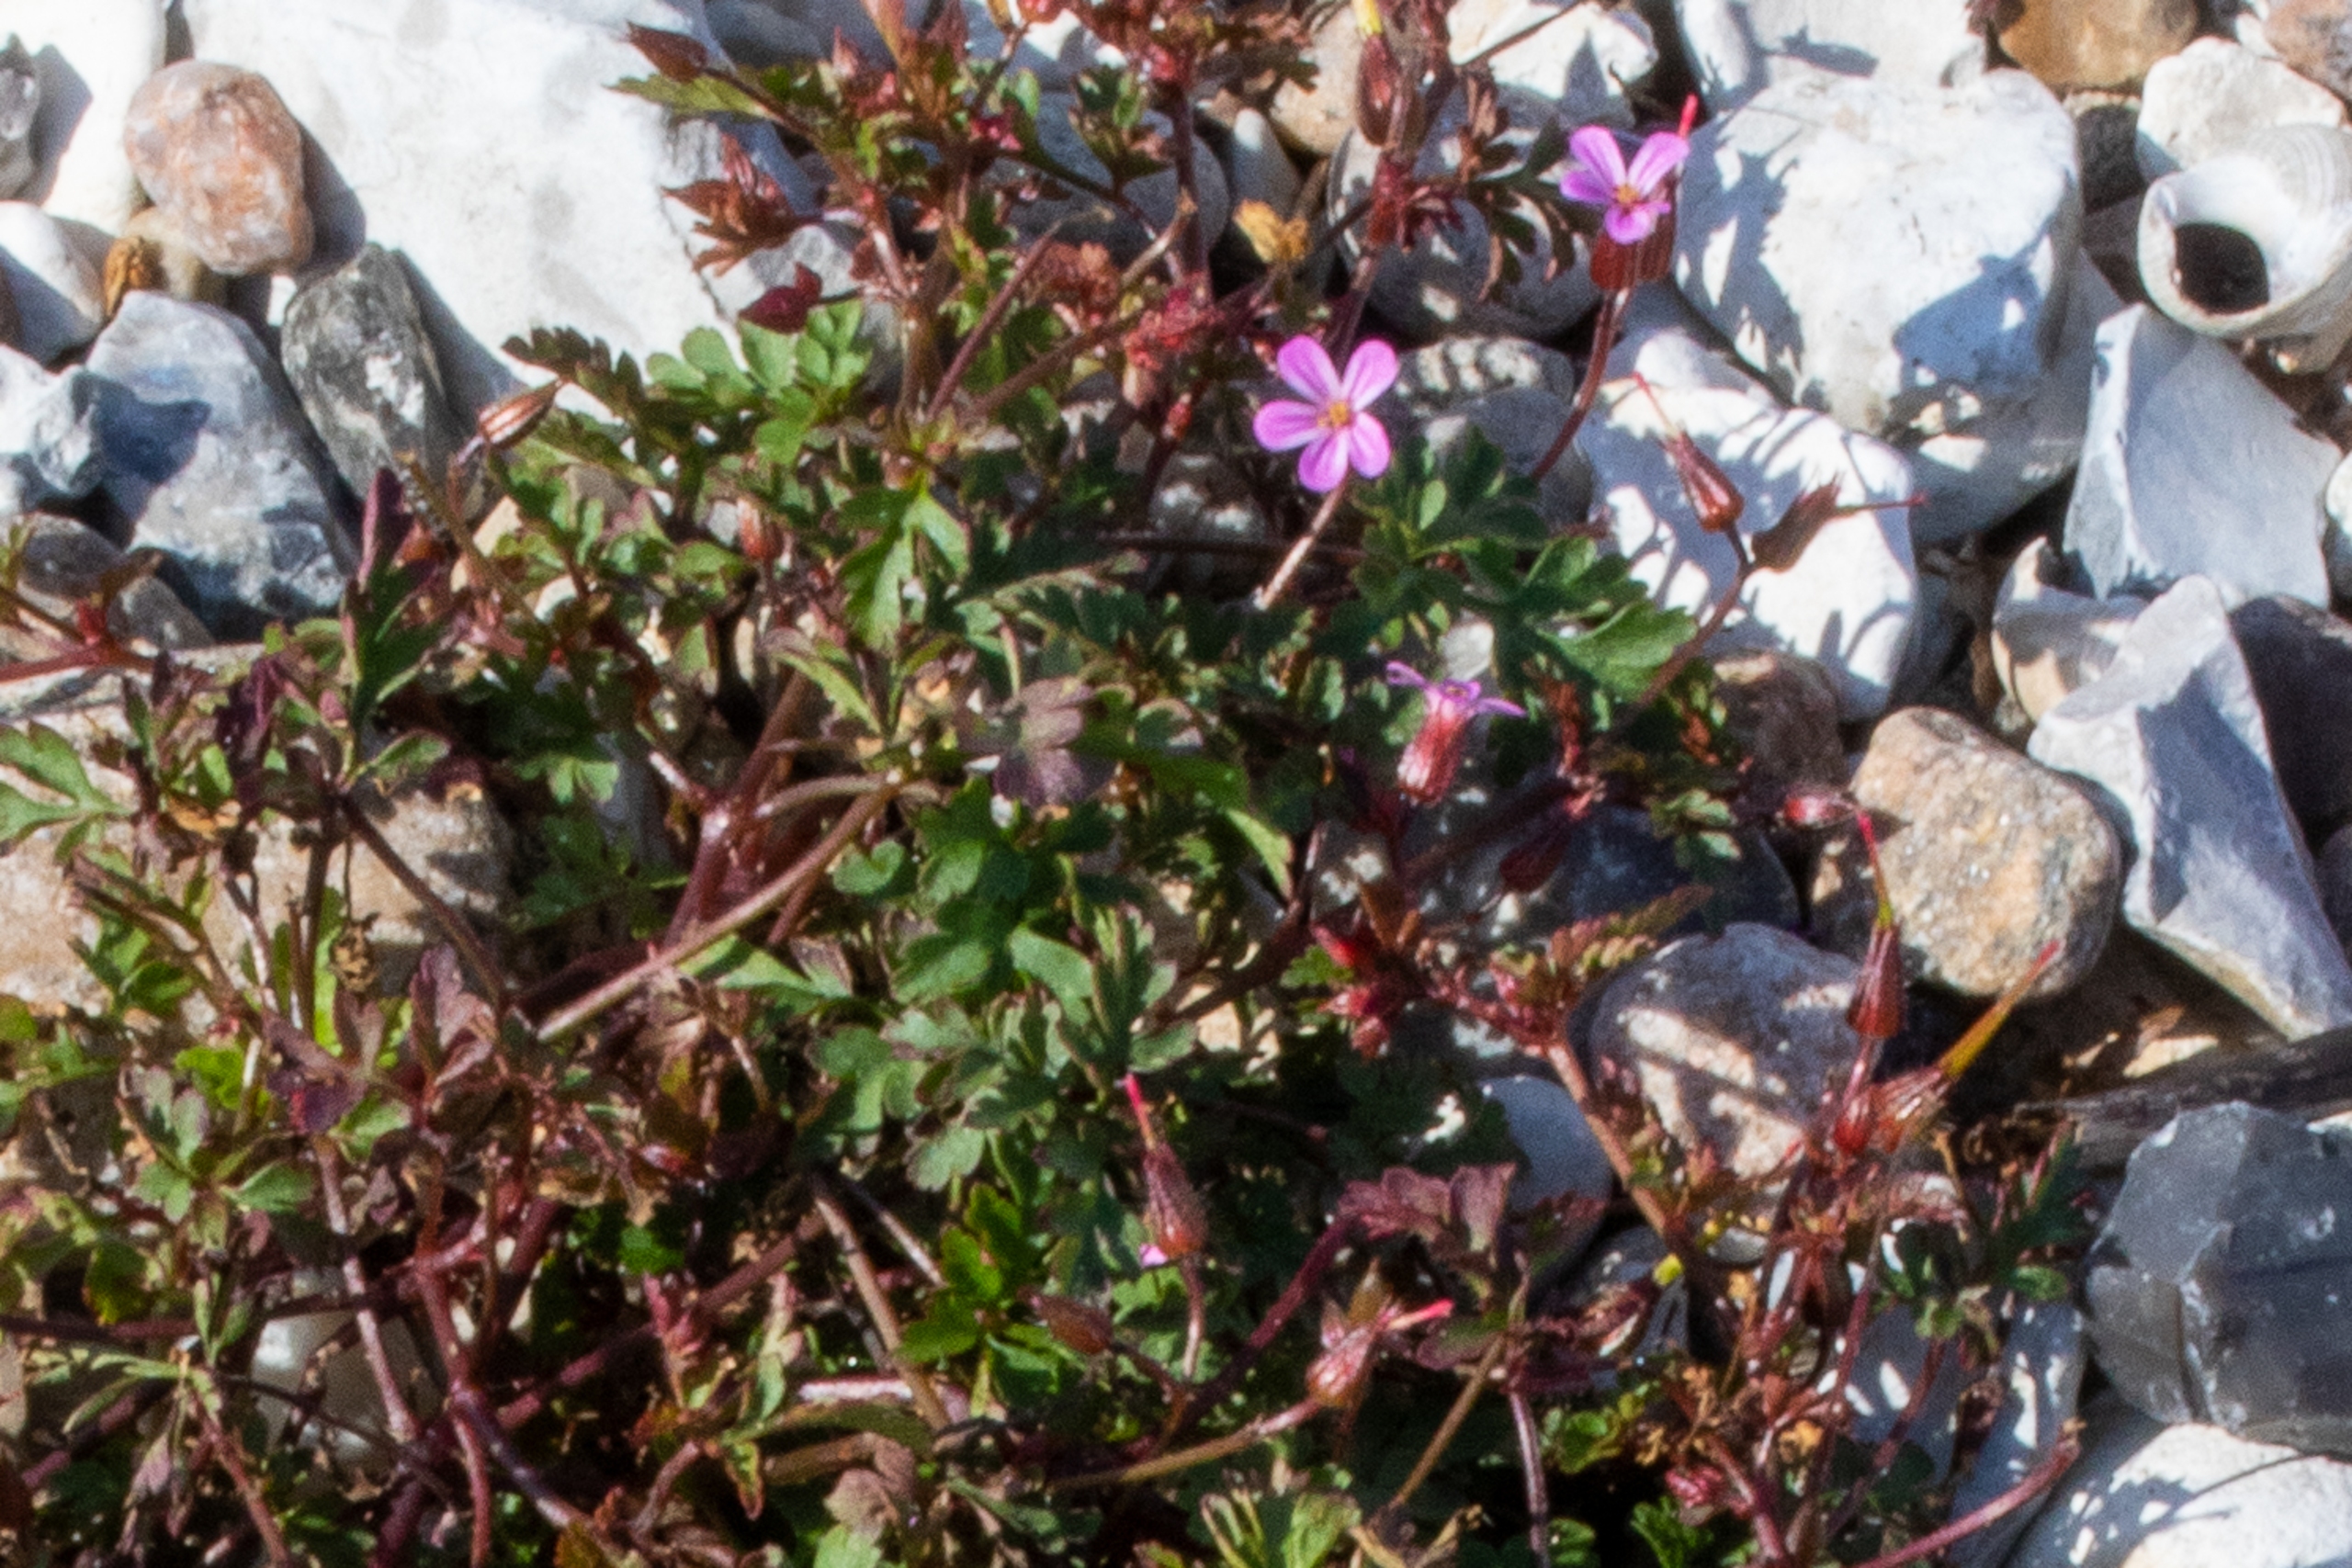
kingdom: Plantae
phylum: Tracheophyta
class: Magnoliopsida
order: Geraniales
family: Geraniaceae
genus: Geranium
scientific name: Geranium robertianum
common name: Stinkende storkenæb
